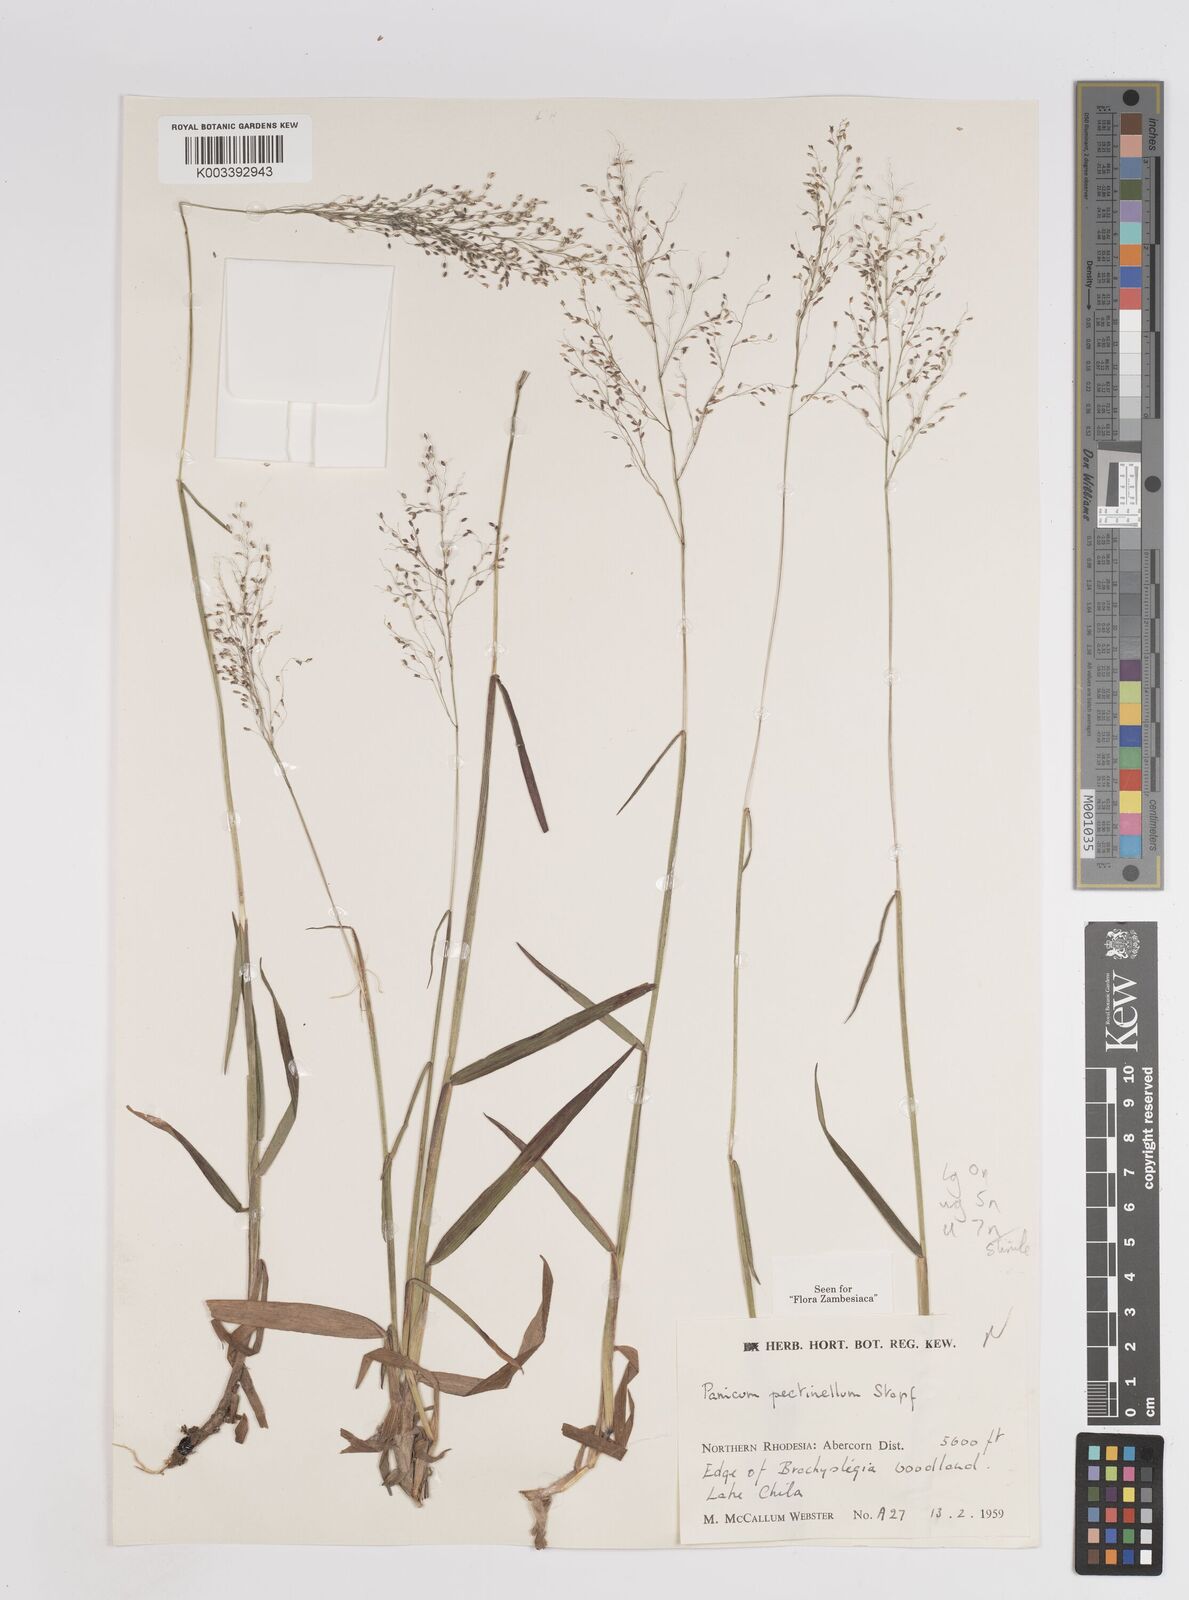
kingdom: Plantae
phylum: Tracheophyta
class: Liliopsida
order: Poales
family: Poaceae
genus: Adenochloa
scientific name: Adenochloa pectinella
